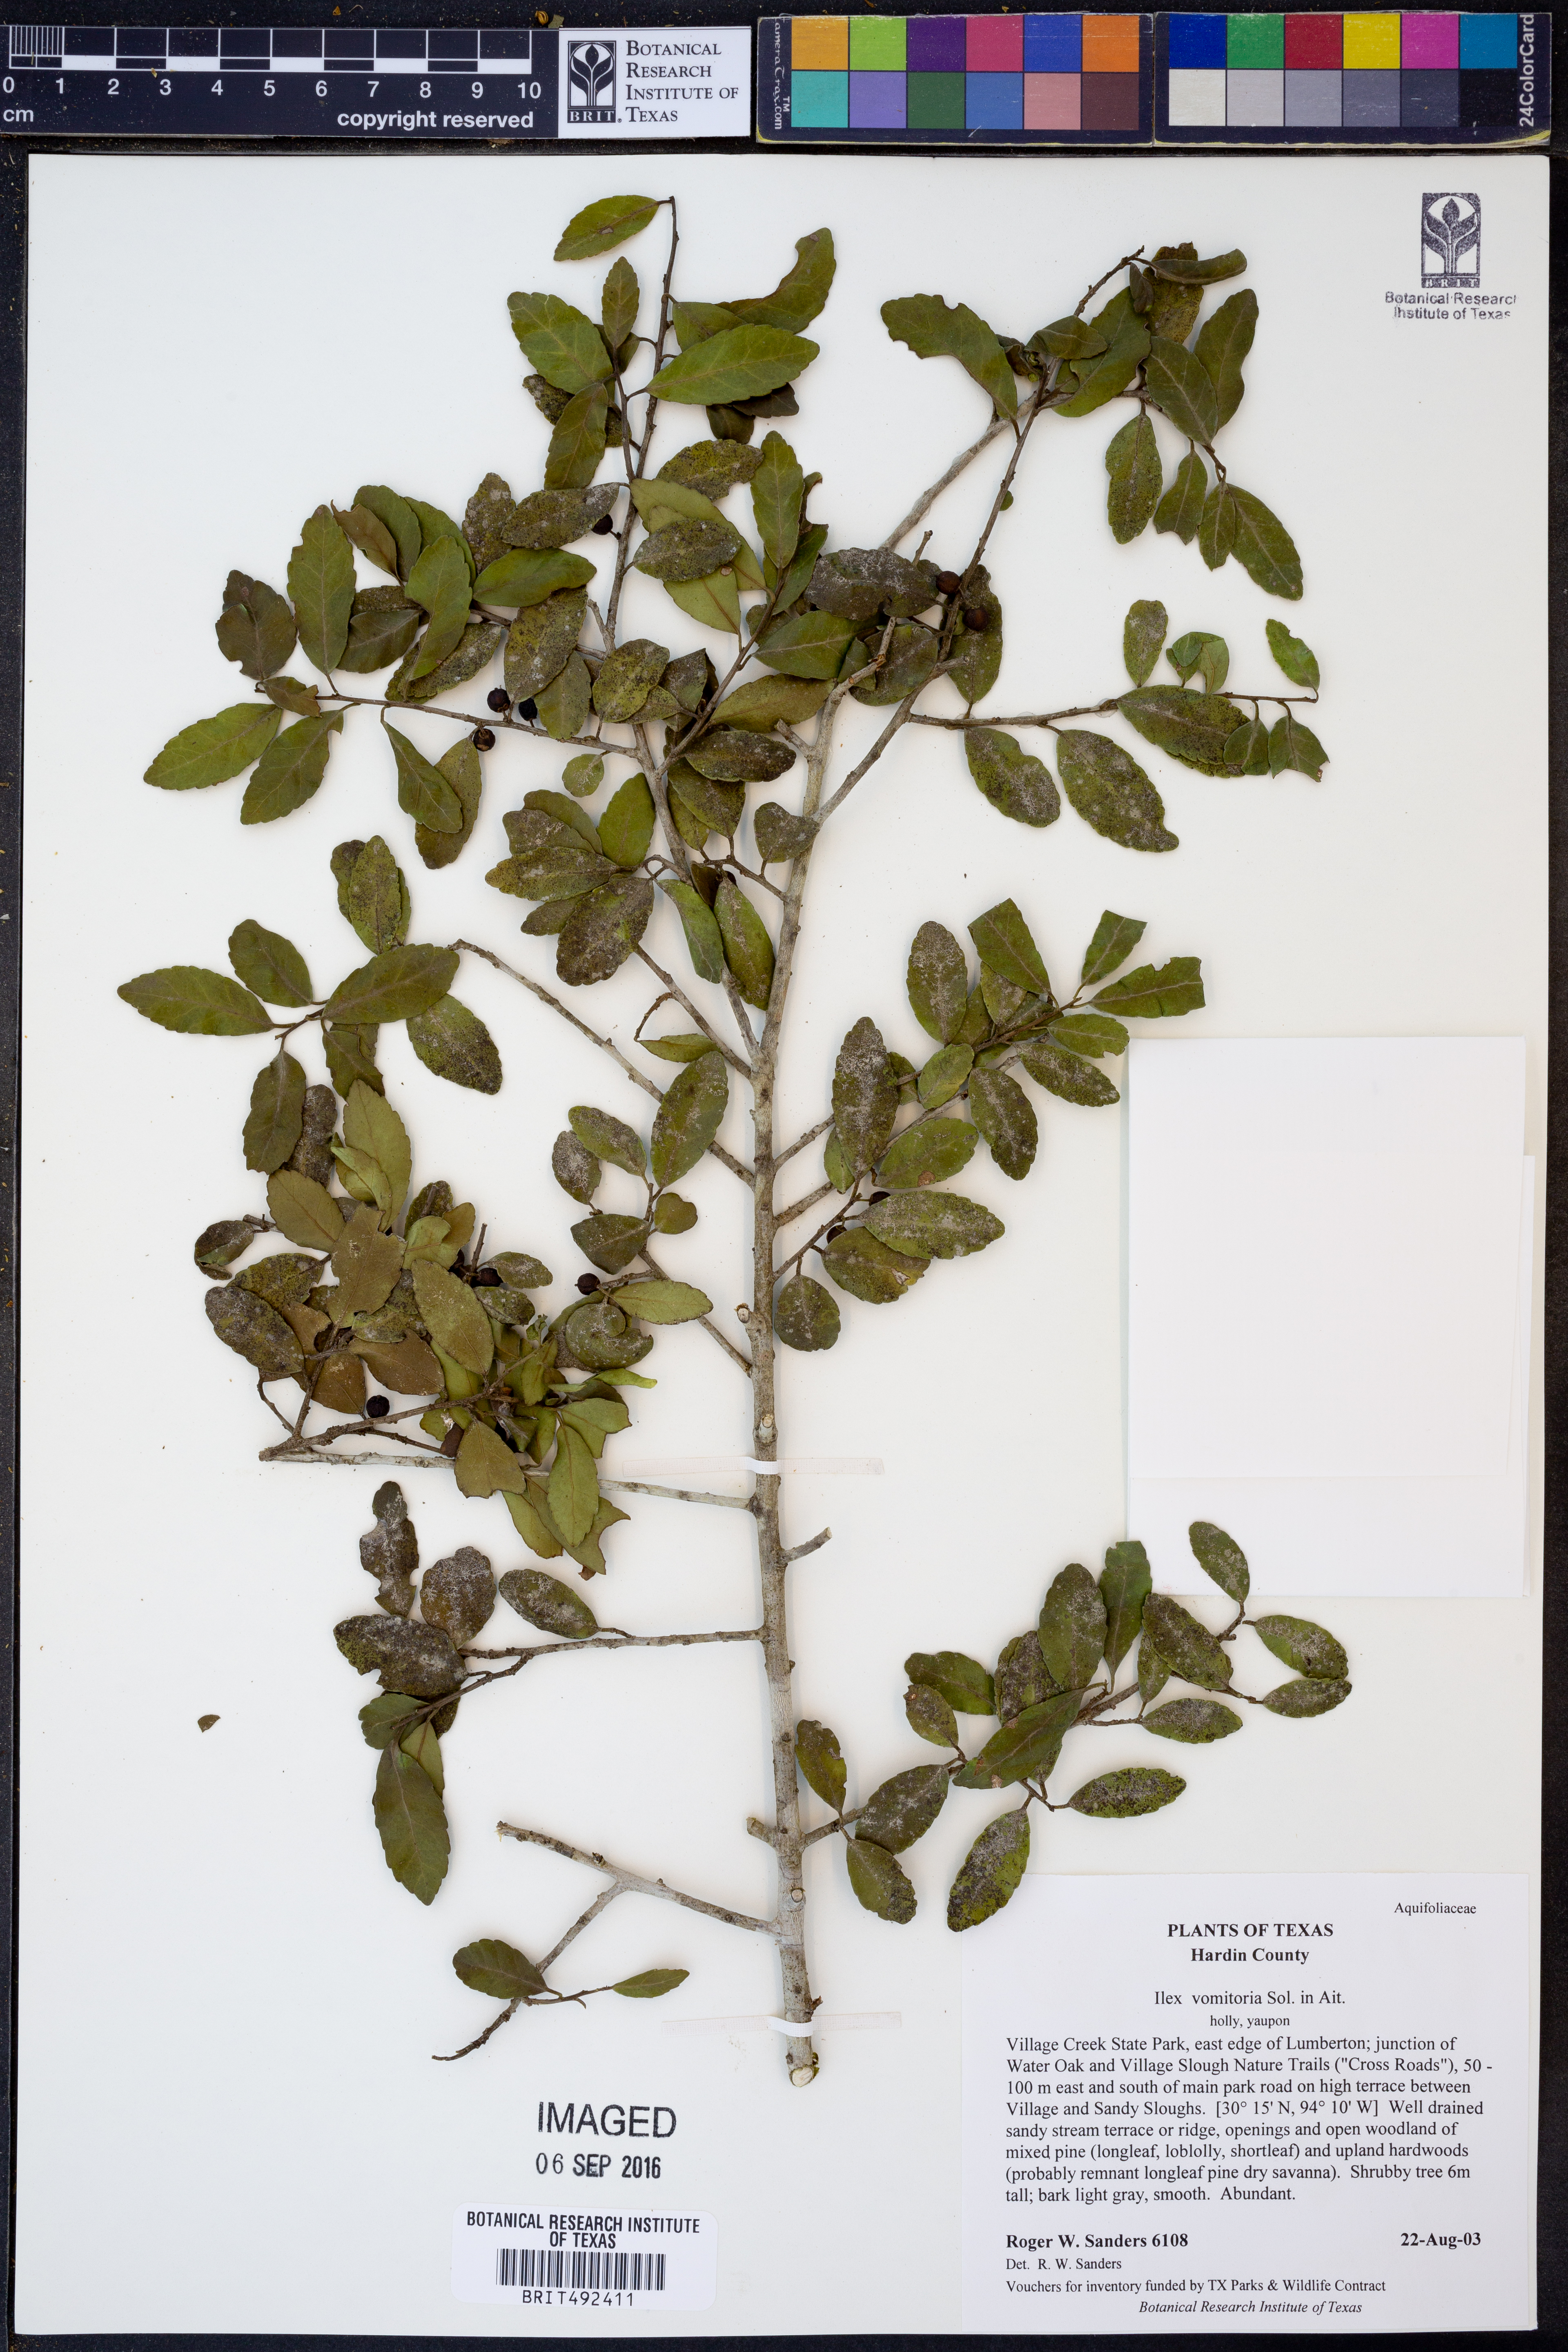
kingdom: Plantae
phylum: Tracheophyta
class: Magnoliopsida
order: Aquifoliales
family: Aquifoliaceae
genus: Ilex
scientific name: Ilex vomitoria
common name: Yaupon holly
